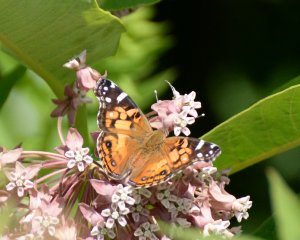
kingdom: Animalia
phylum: Arthropoda
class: Insecta
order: Lepidoptera
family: Nymphalidae
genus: Vanessa
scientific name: Vanessa virginiensis
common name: American Lady
